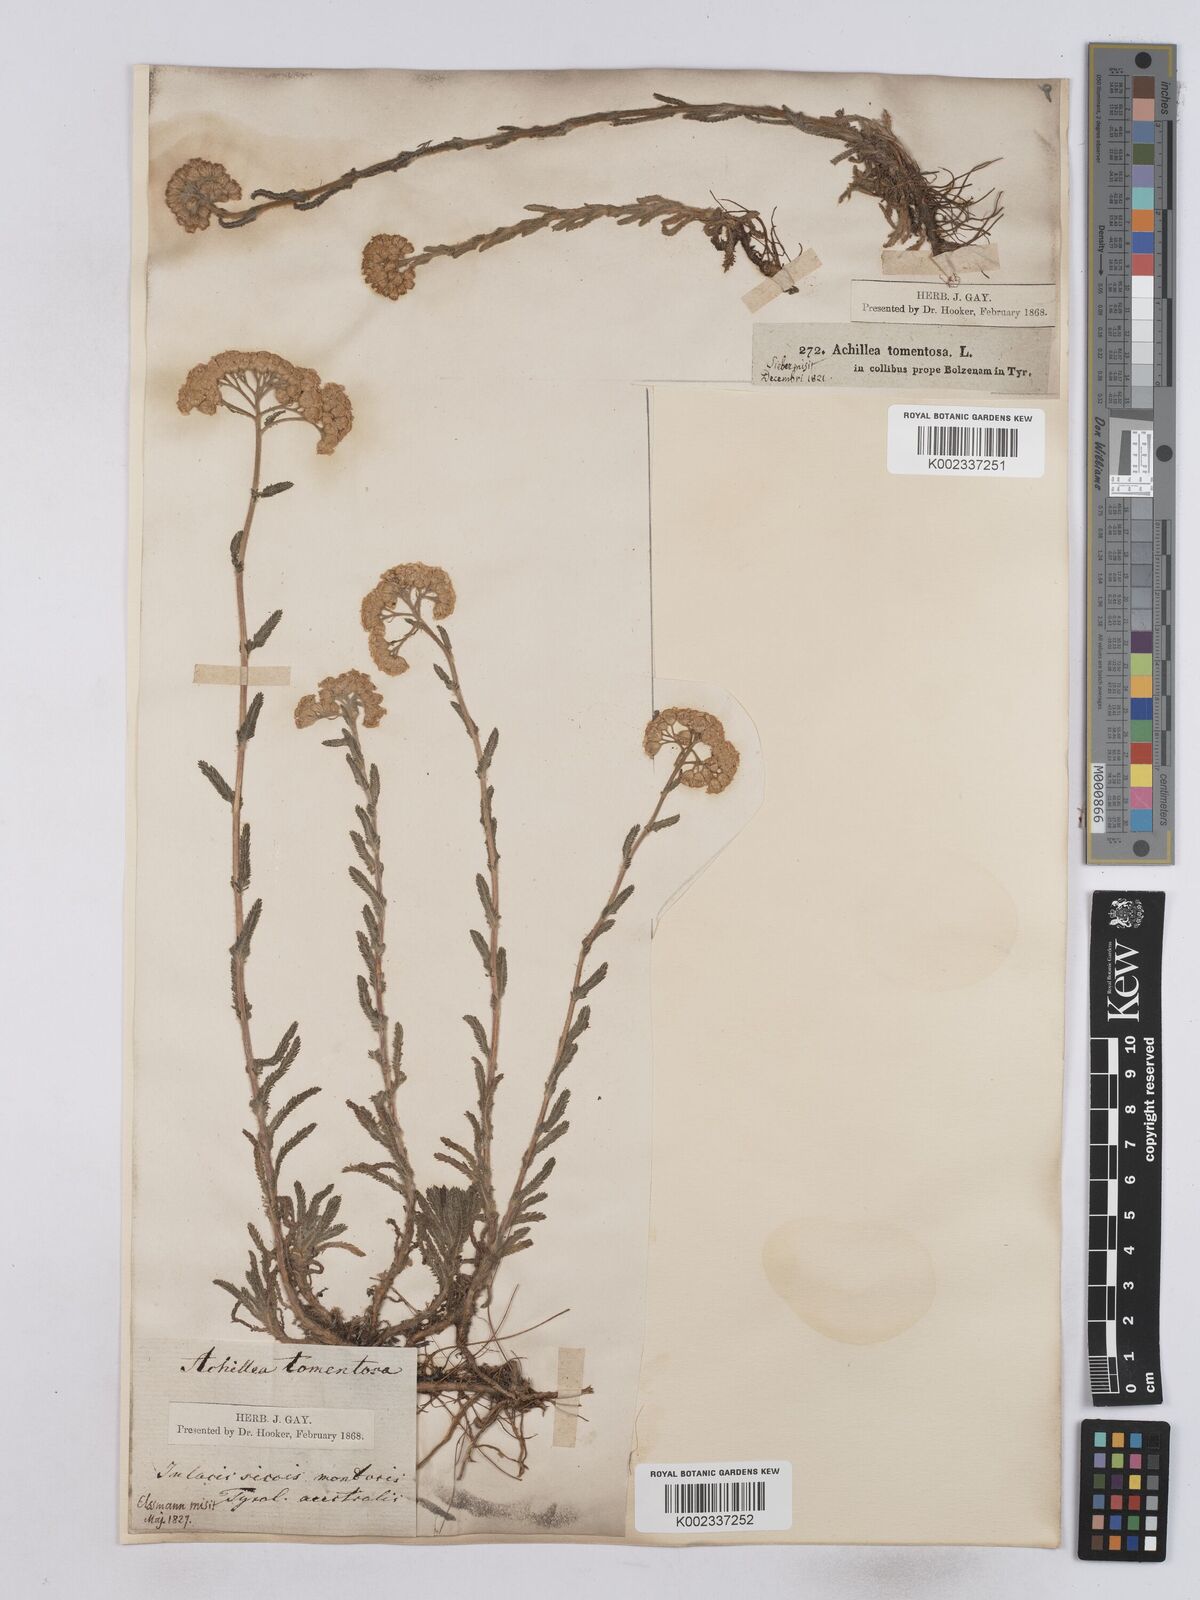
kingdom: Plantae
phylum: Tracheophyta
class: Magnoliopsida
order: Asterales
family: Asteraceae
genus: Achillea
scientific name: Achillea tomentosa
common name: Yellow milfoil
